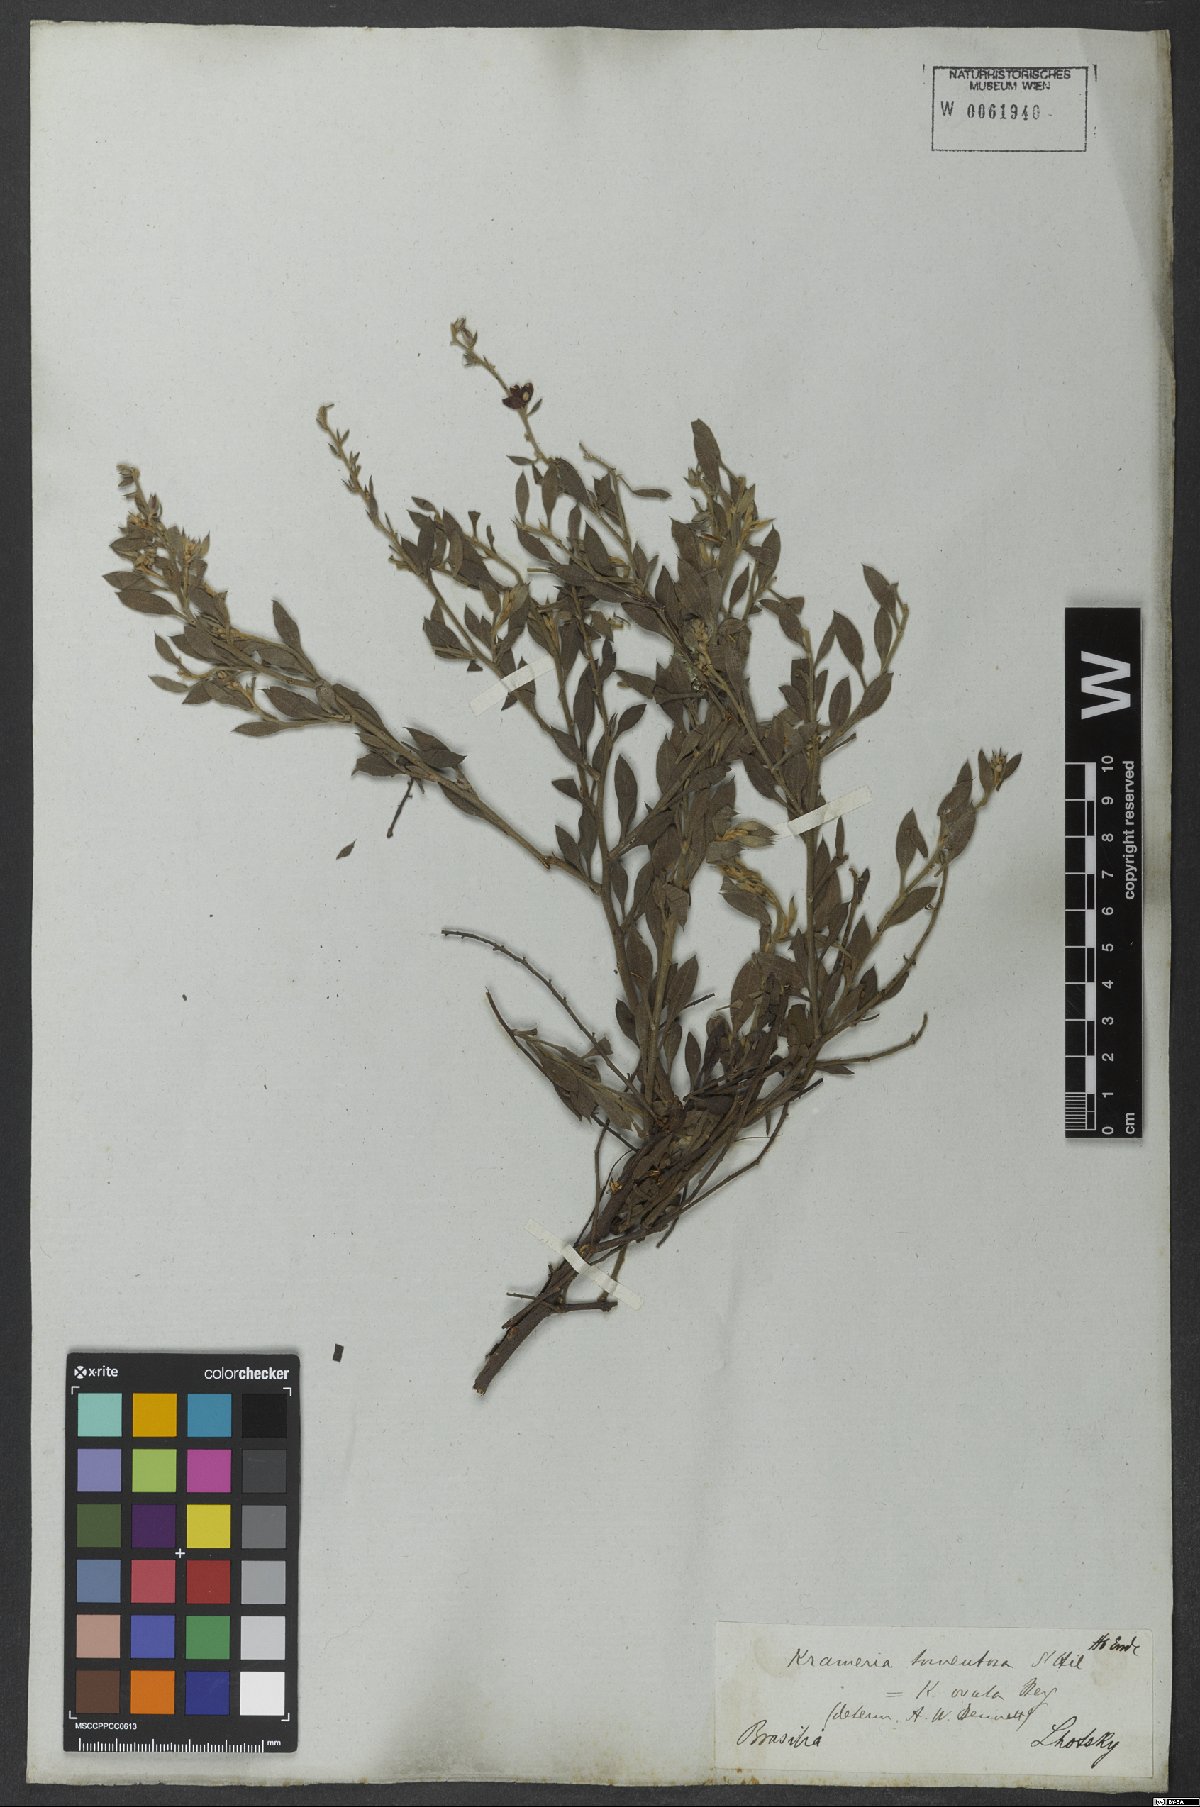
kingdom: Plantae
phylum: Tracheophyta
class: Magnoliopsida
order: Zygophyllales
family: Krameriaceae
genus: Krameria
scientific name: Krameria tomentosa
